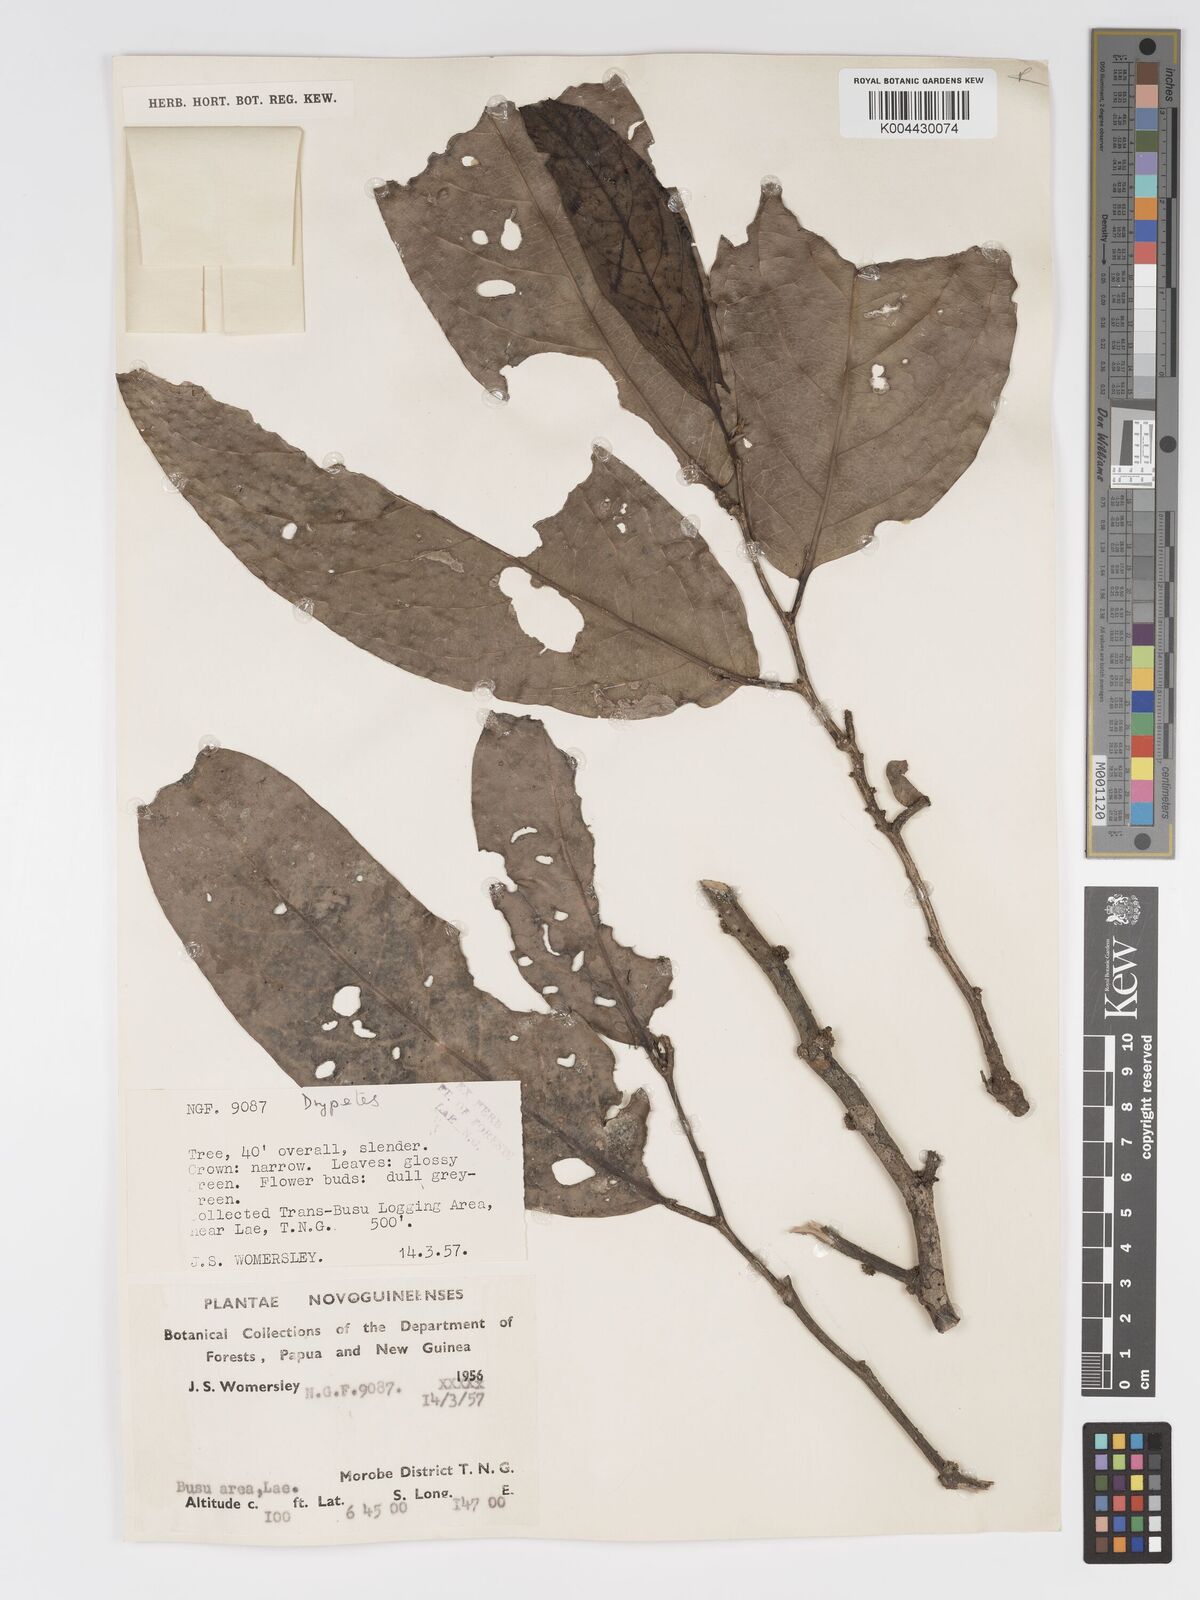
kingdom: Plantae
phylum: Tracheophyta
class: Magnoliopsida
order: Malpighiales
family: Putranjivaceae
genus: Drypetes
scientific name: Drypetes longifolia
